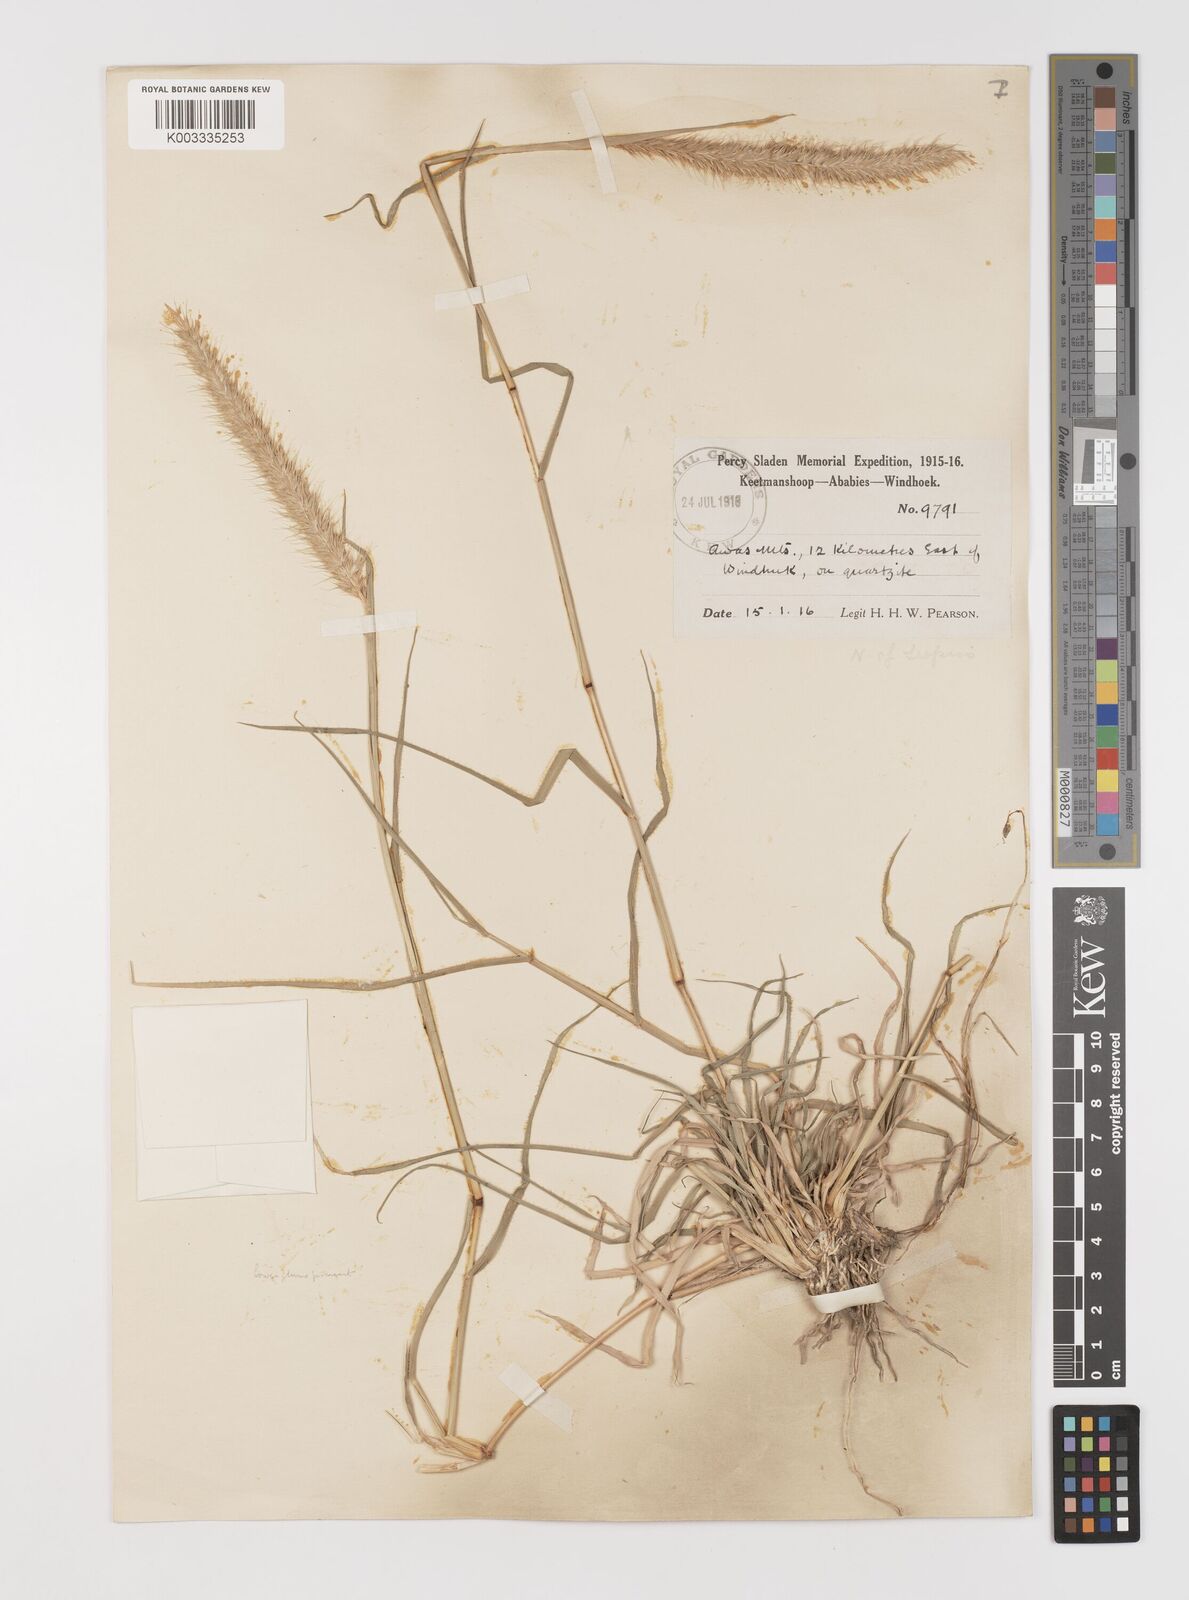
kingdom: Plantae
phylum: Tracheophyta
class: Liliopsida
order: Poales
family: Poaceae
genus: Monelytrum
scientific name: Monelytrum luederitzianum
